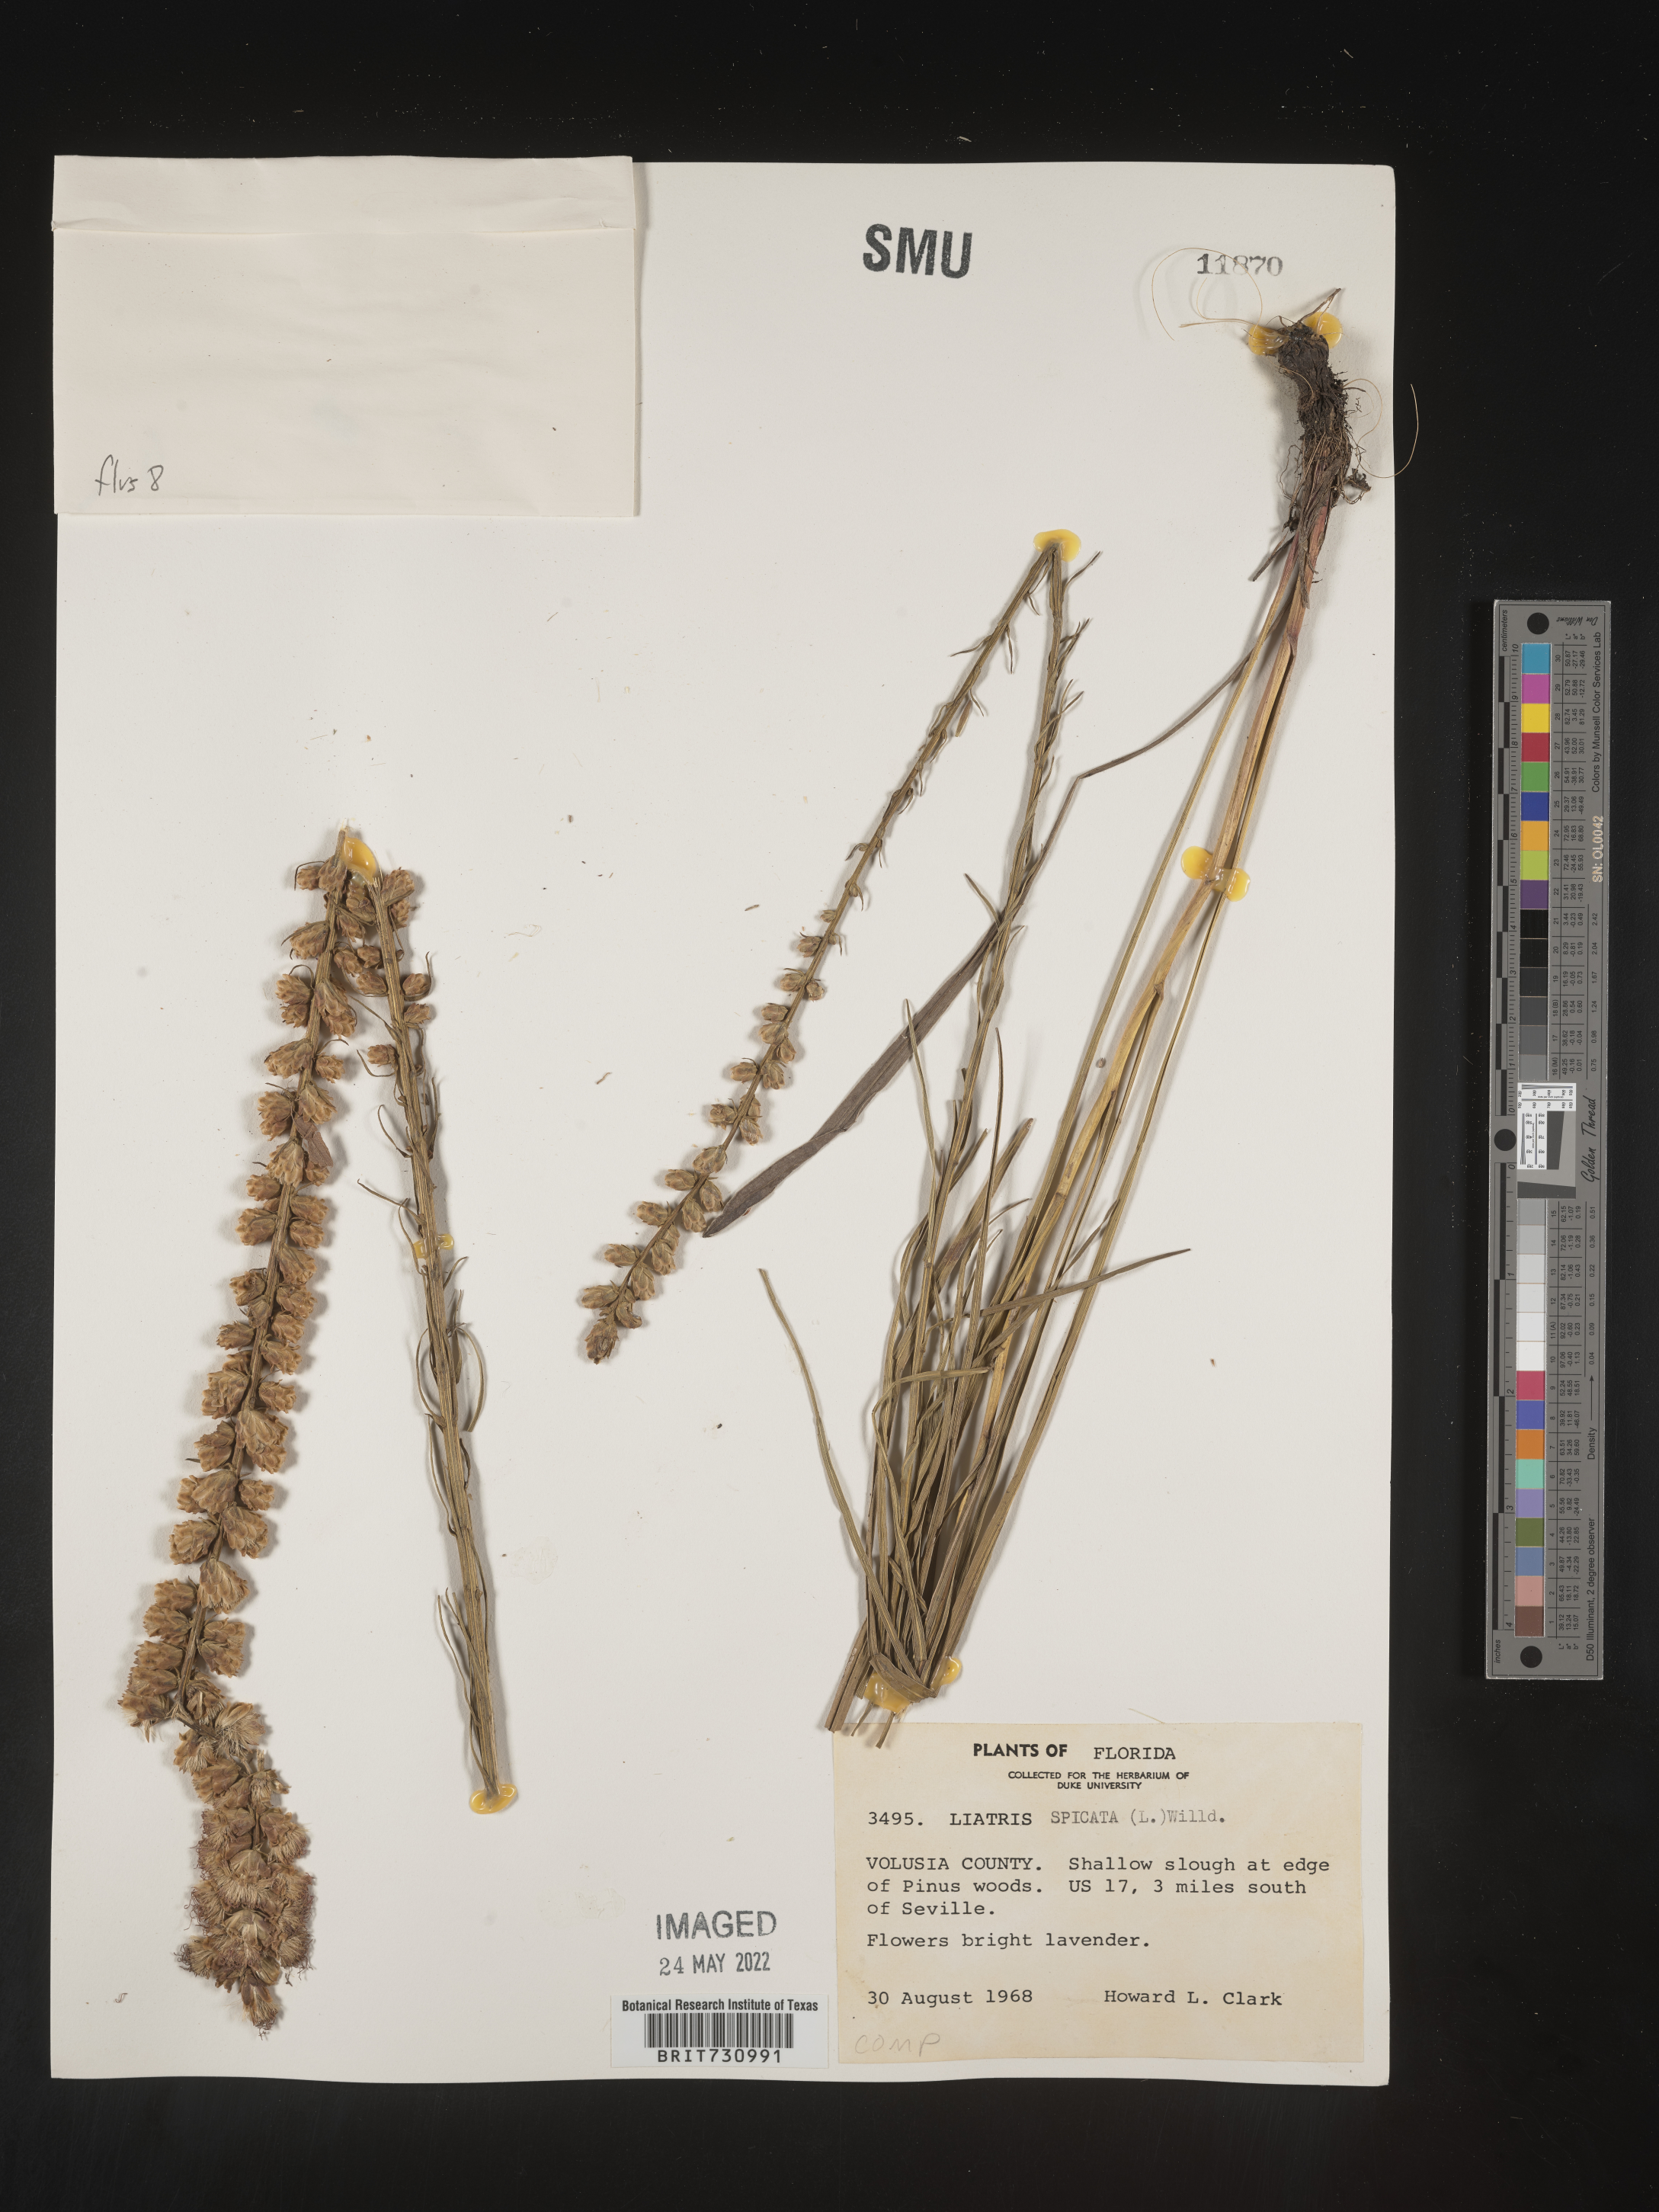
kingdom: Plantae
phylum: Tracheophyta
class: Magnoliopsida
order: Asterales
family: Asteraceae
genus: Liatris
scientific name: Liatris spicata
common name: Florist gayfeather
